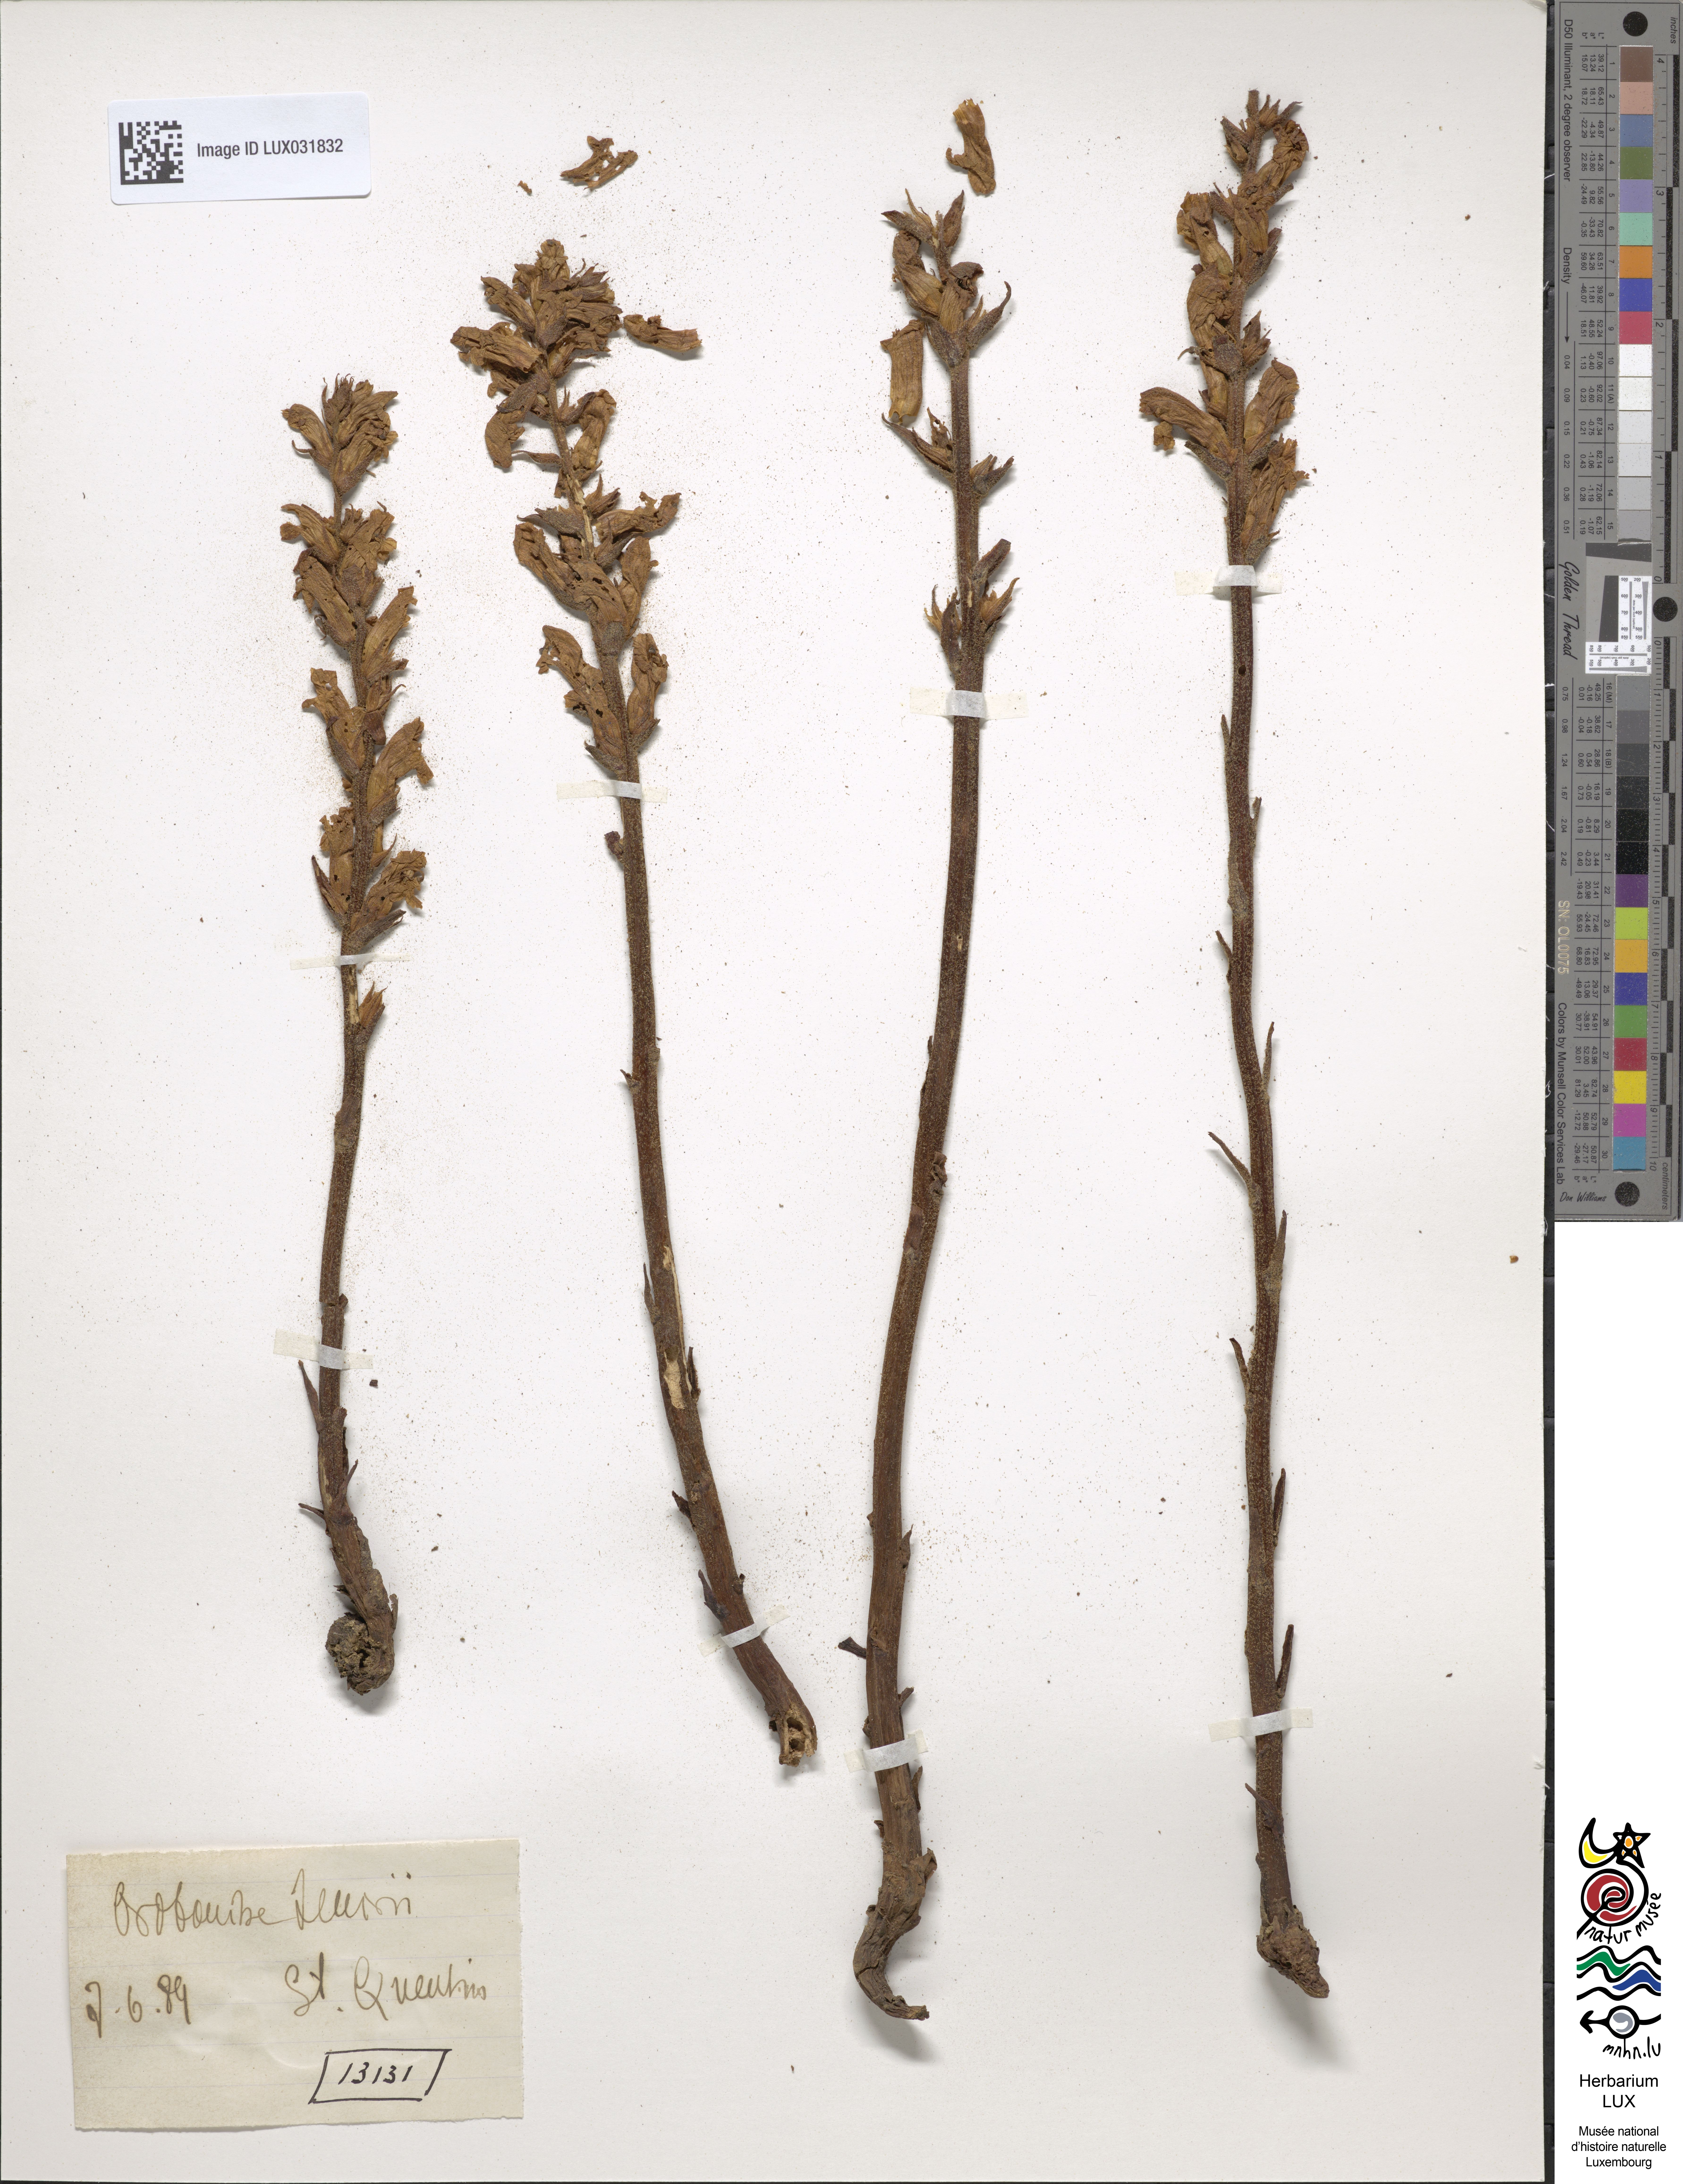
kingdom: Plantae
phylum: Tracheophyta
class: Magnoliopsida
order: Lamiales
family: Orobanchaceae
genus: Orobanche
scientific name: Orobanche teucrii
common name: Germander broomrape
